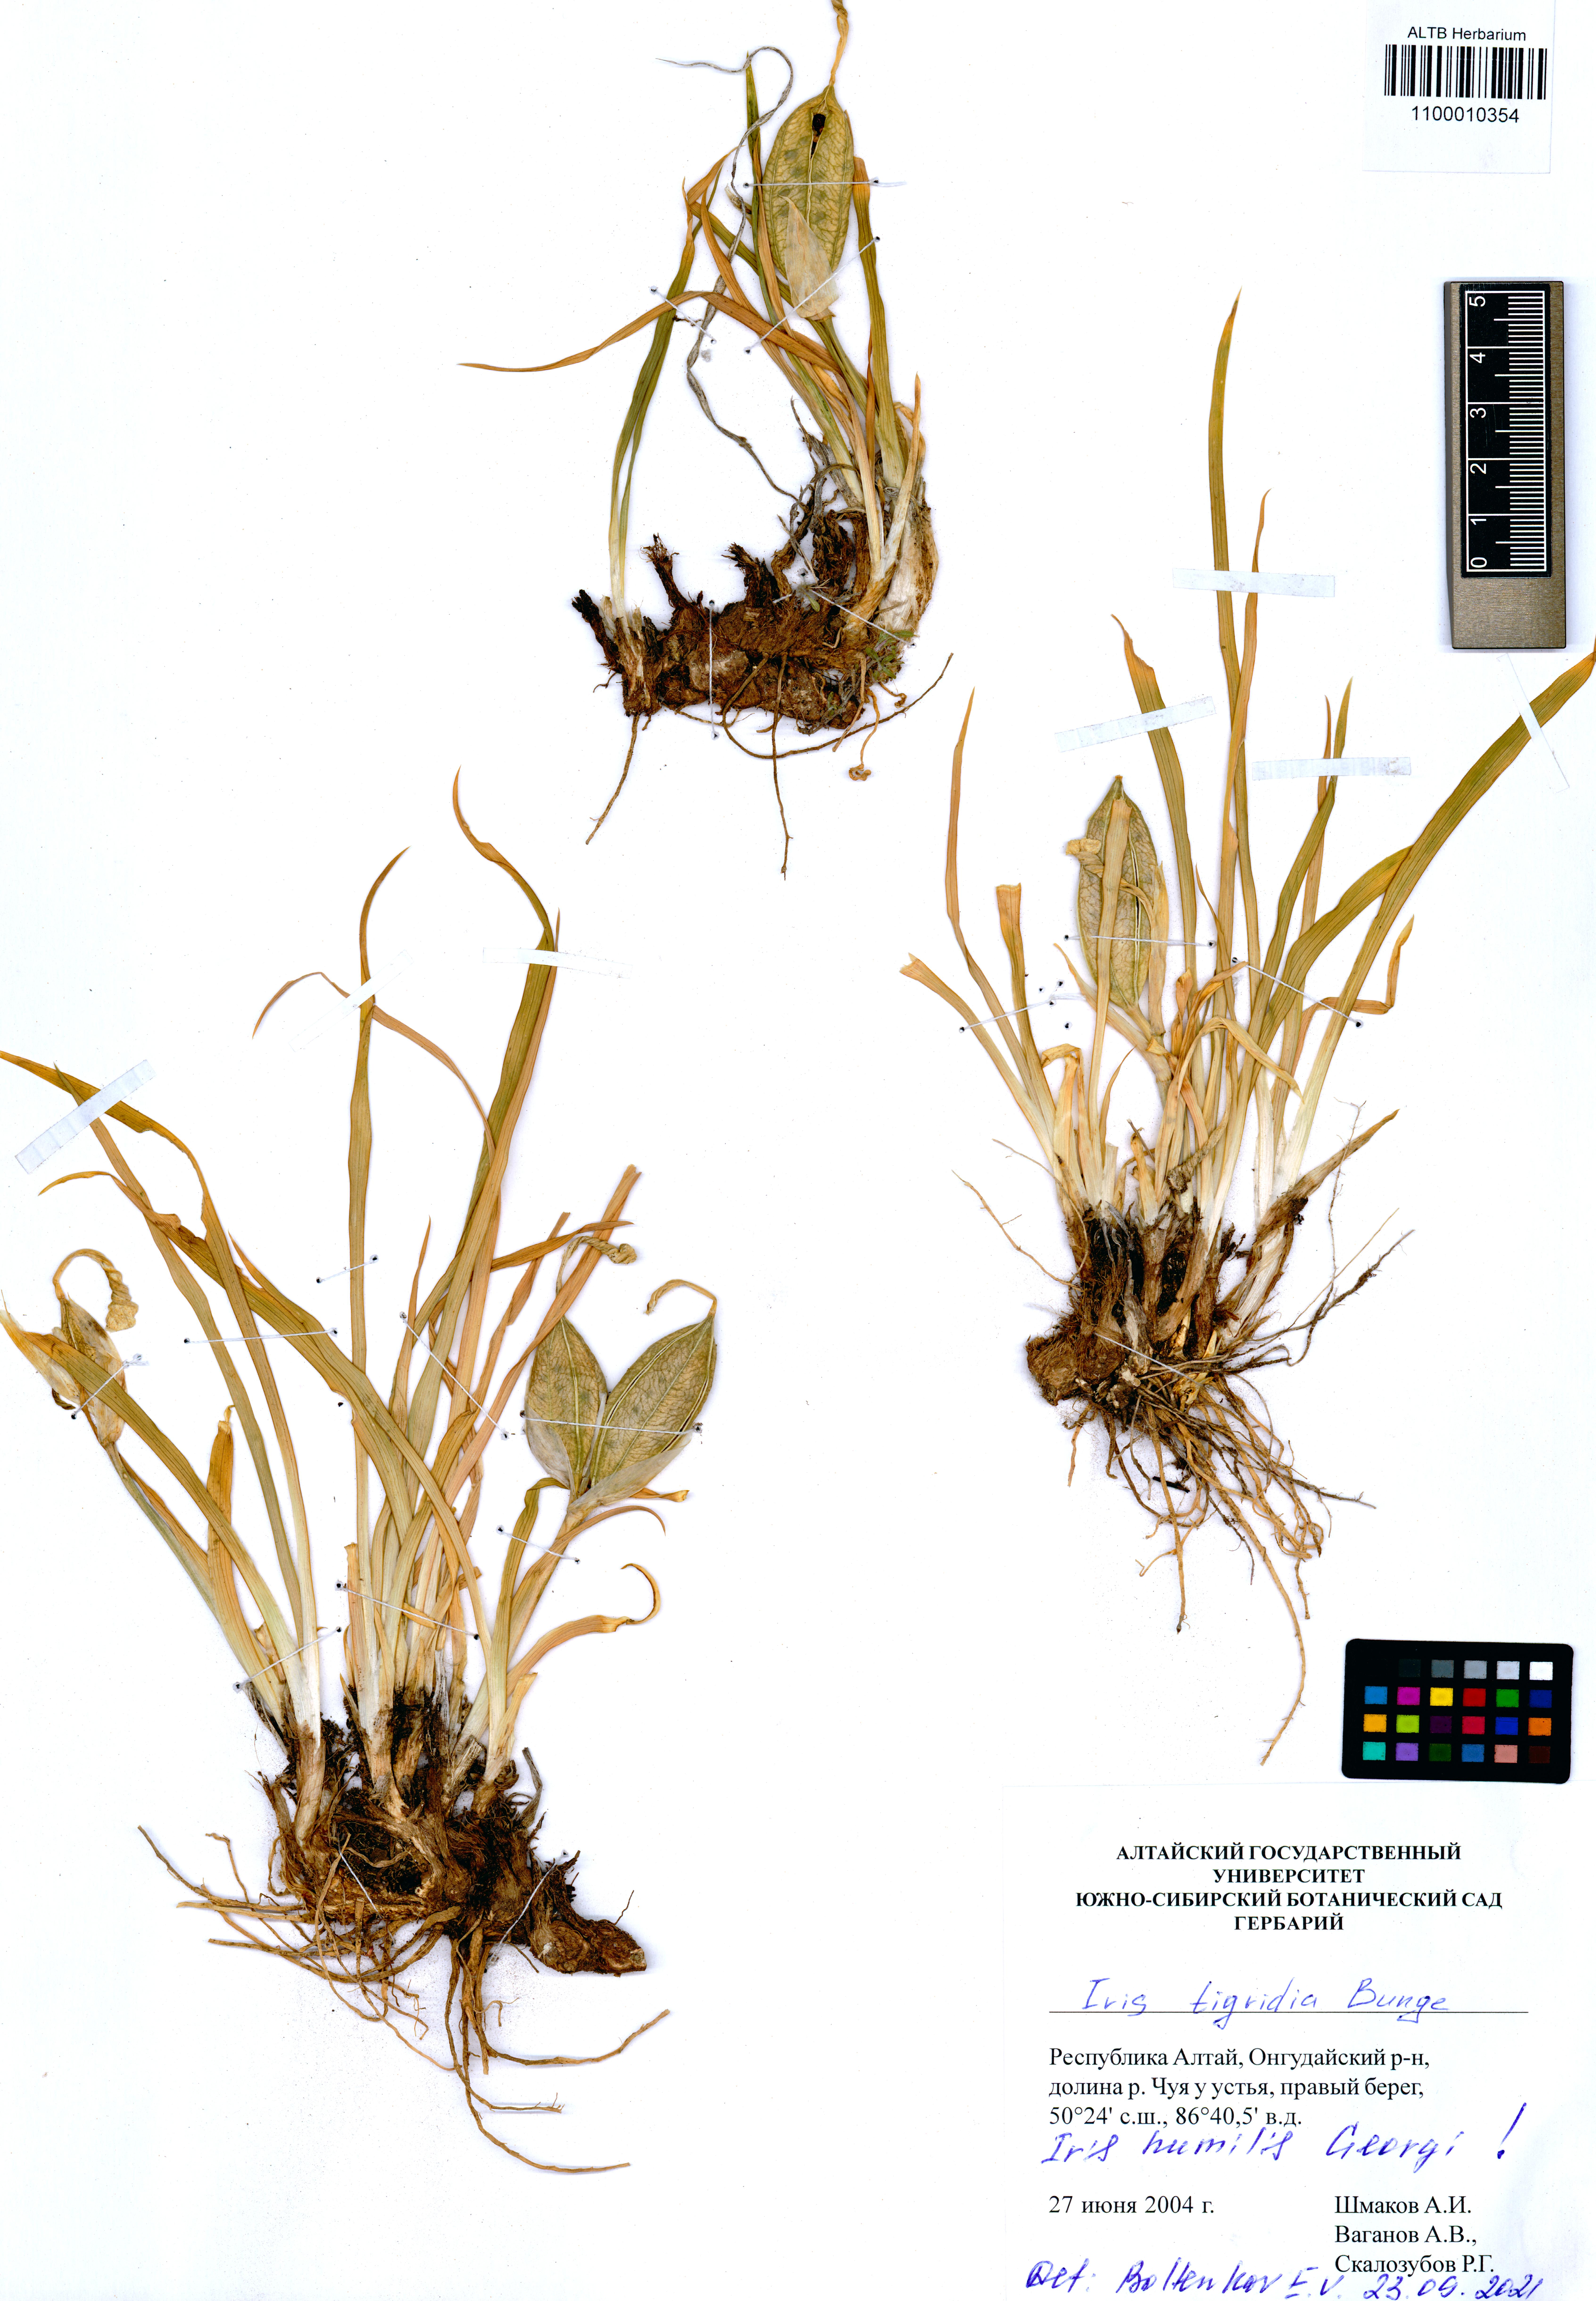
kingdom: Plantae
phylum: Tracheophyta
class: Liliopsida
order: Asparagales
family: Iridaceae
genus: Iris
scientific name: Iris glaucescens
